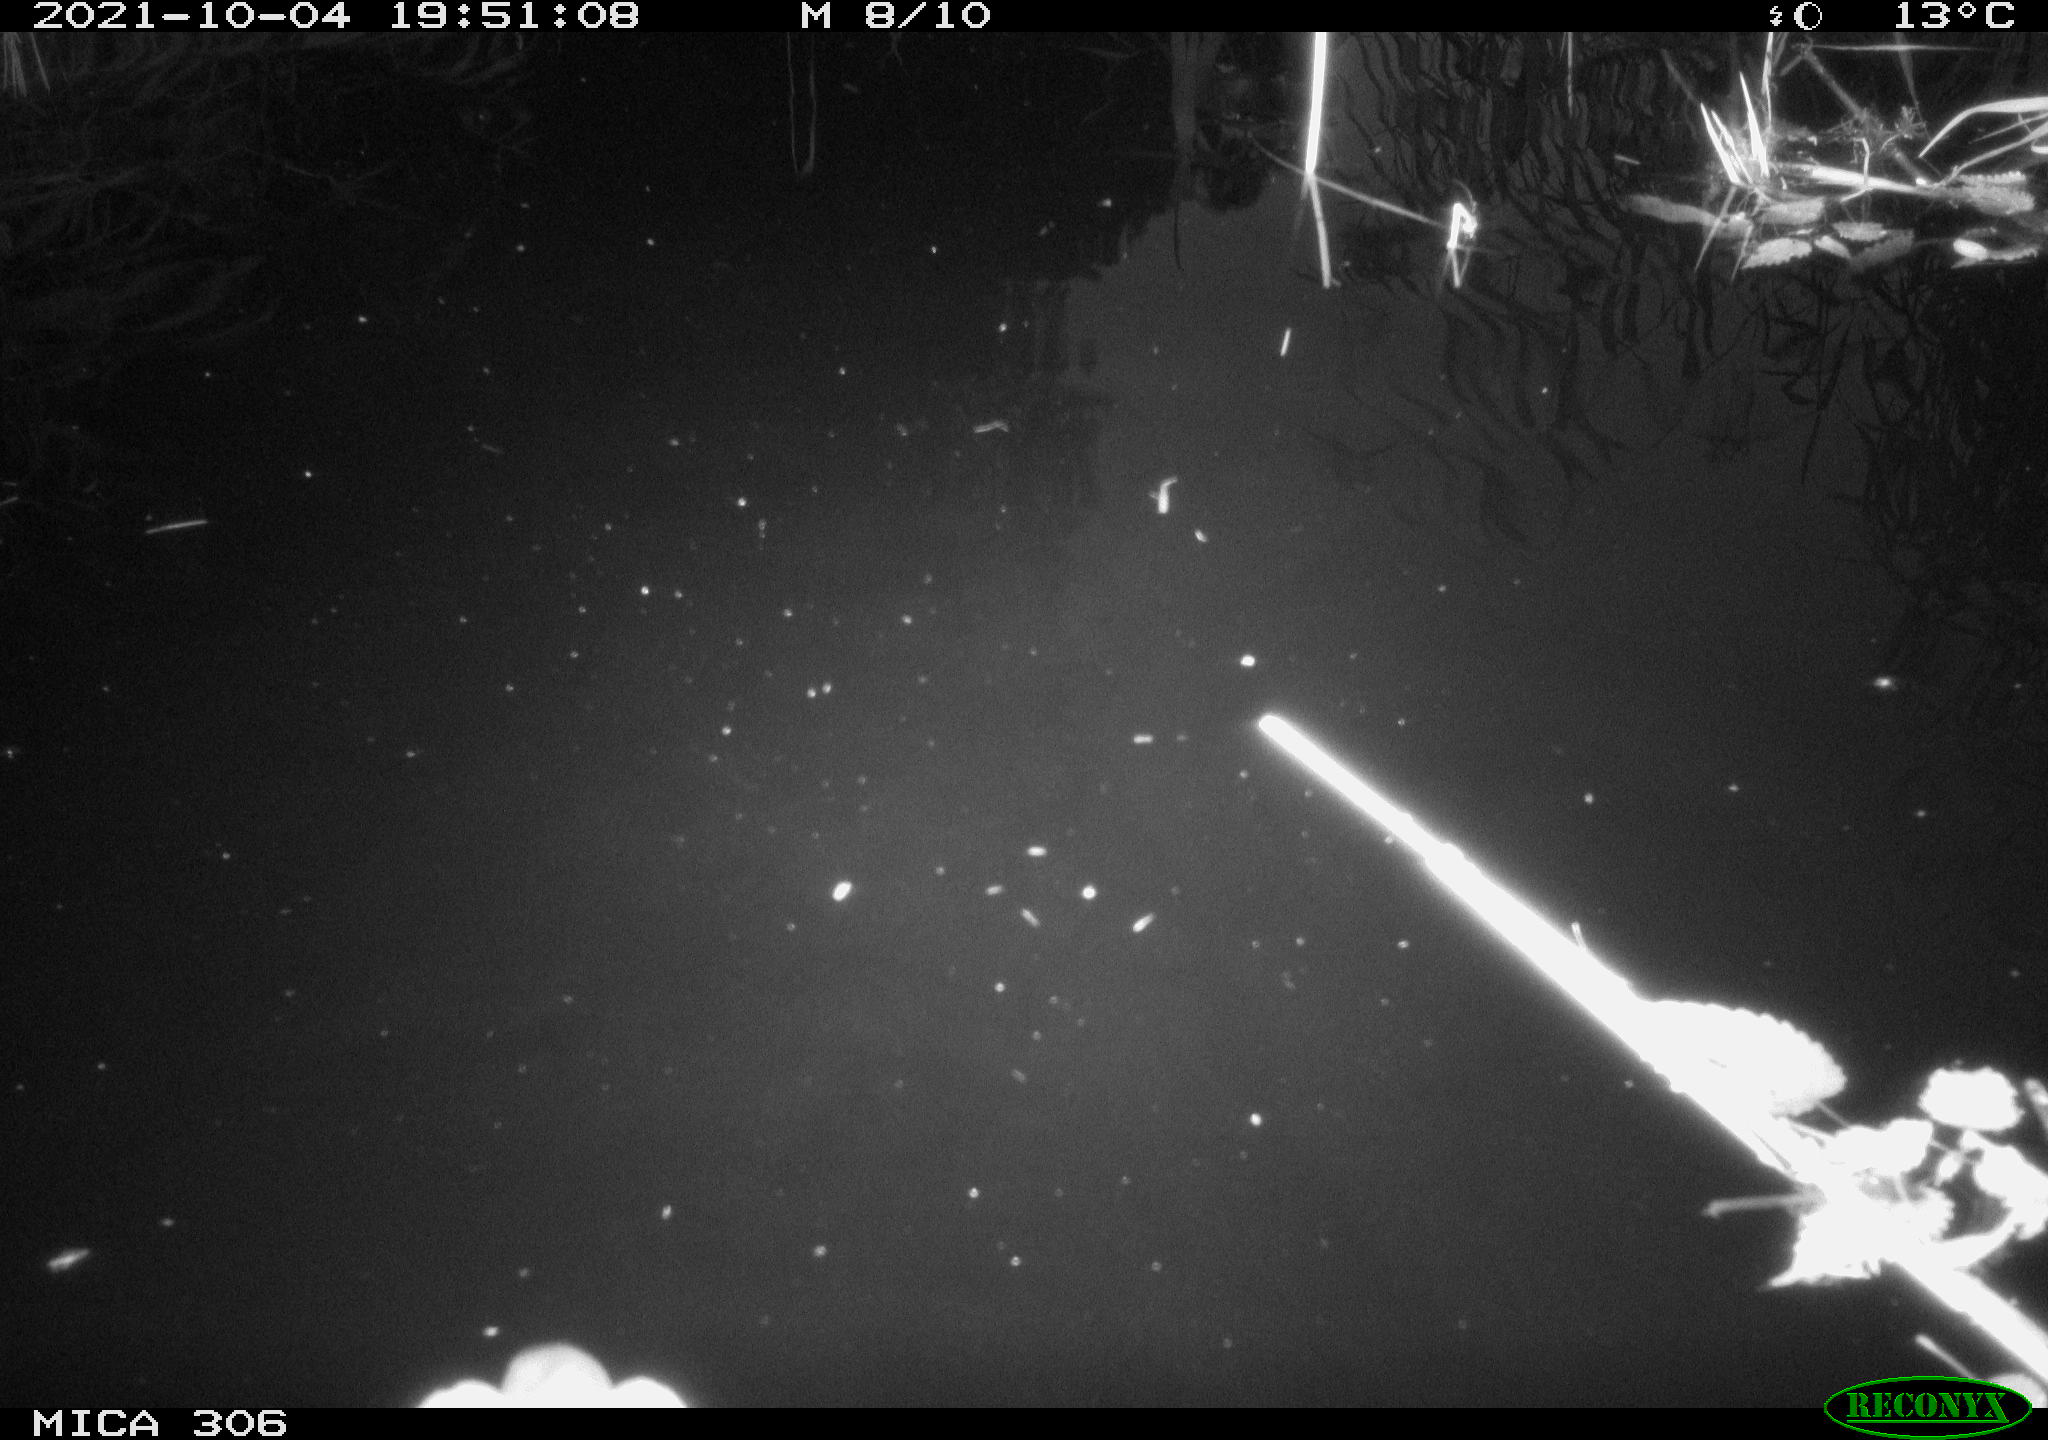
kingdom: Animalia
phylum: Chordata
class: Aves
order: Gruiformes
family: Rallidae
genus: Gallinula
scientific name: Gallinula chloropus
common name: Common moorhen
